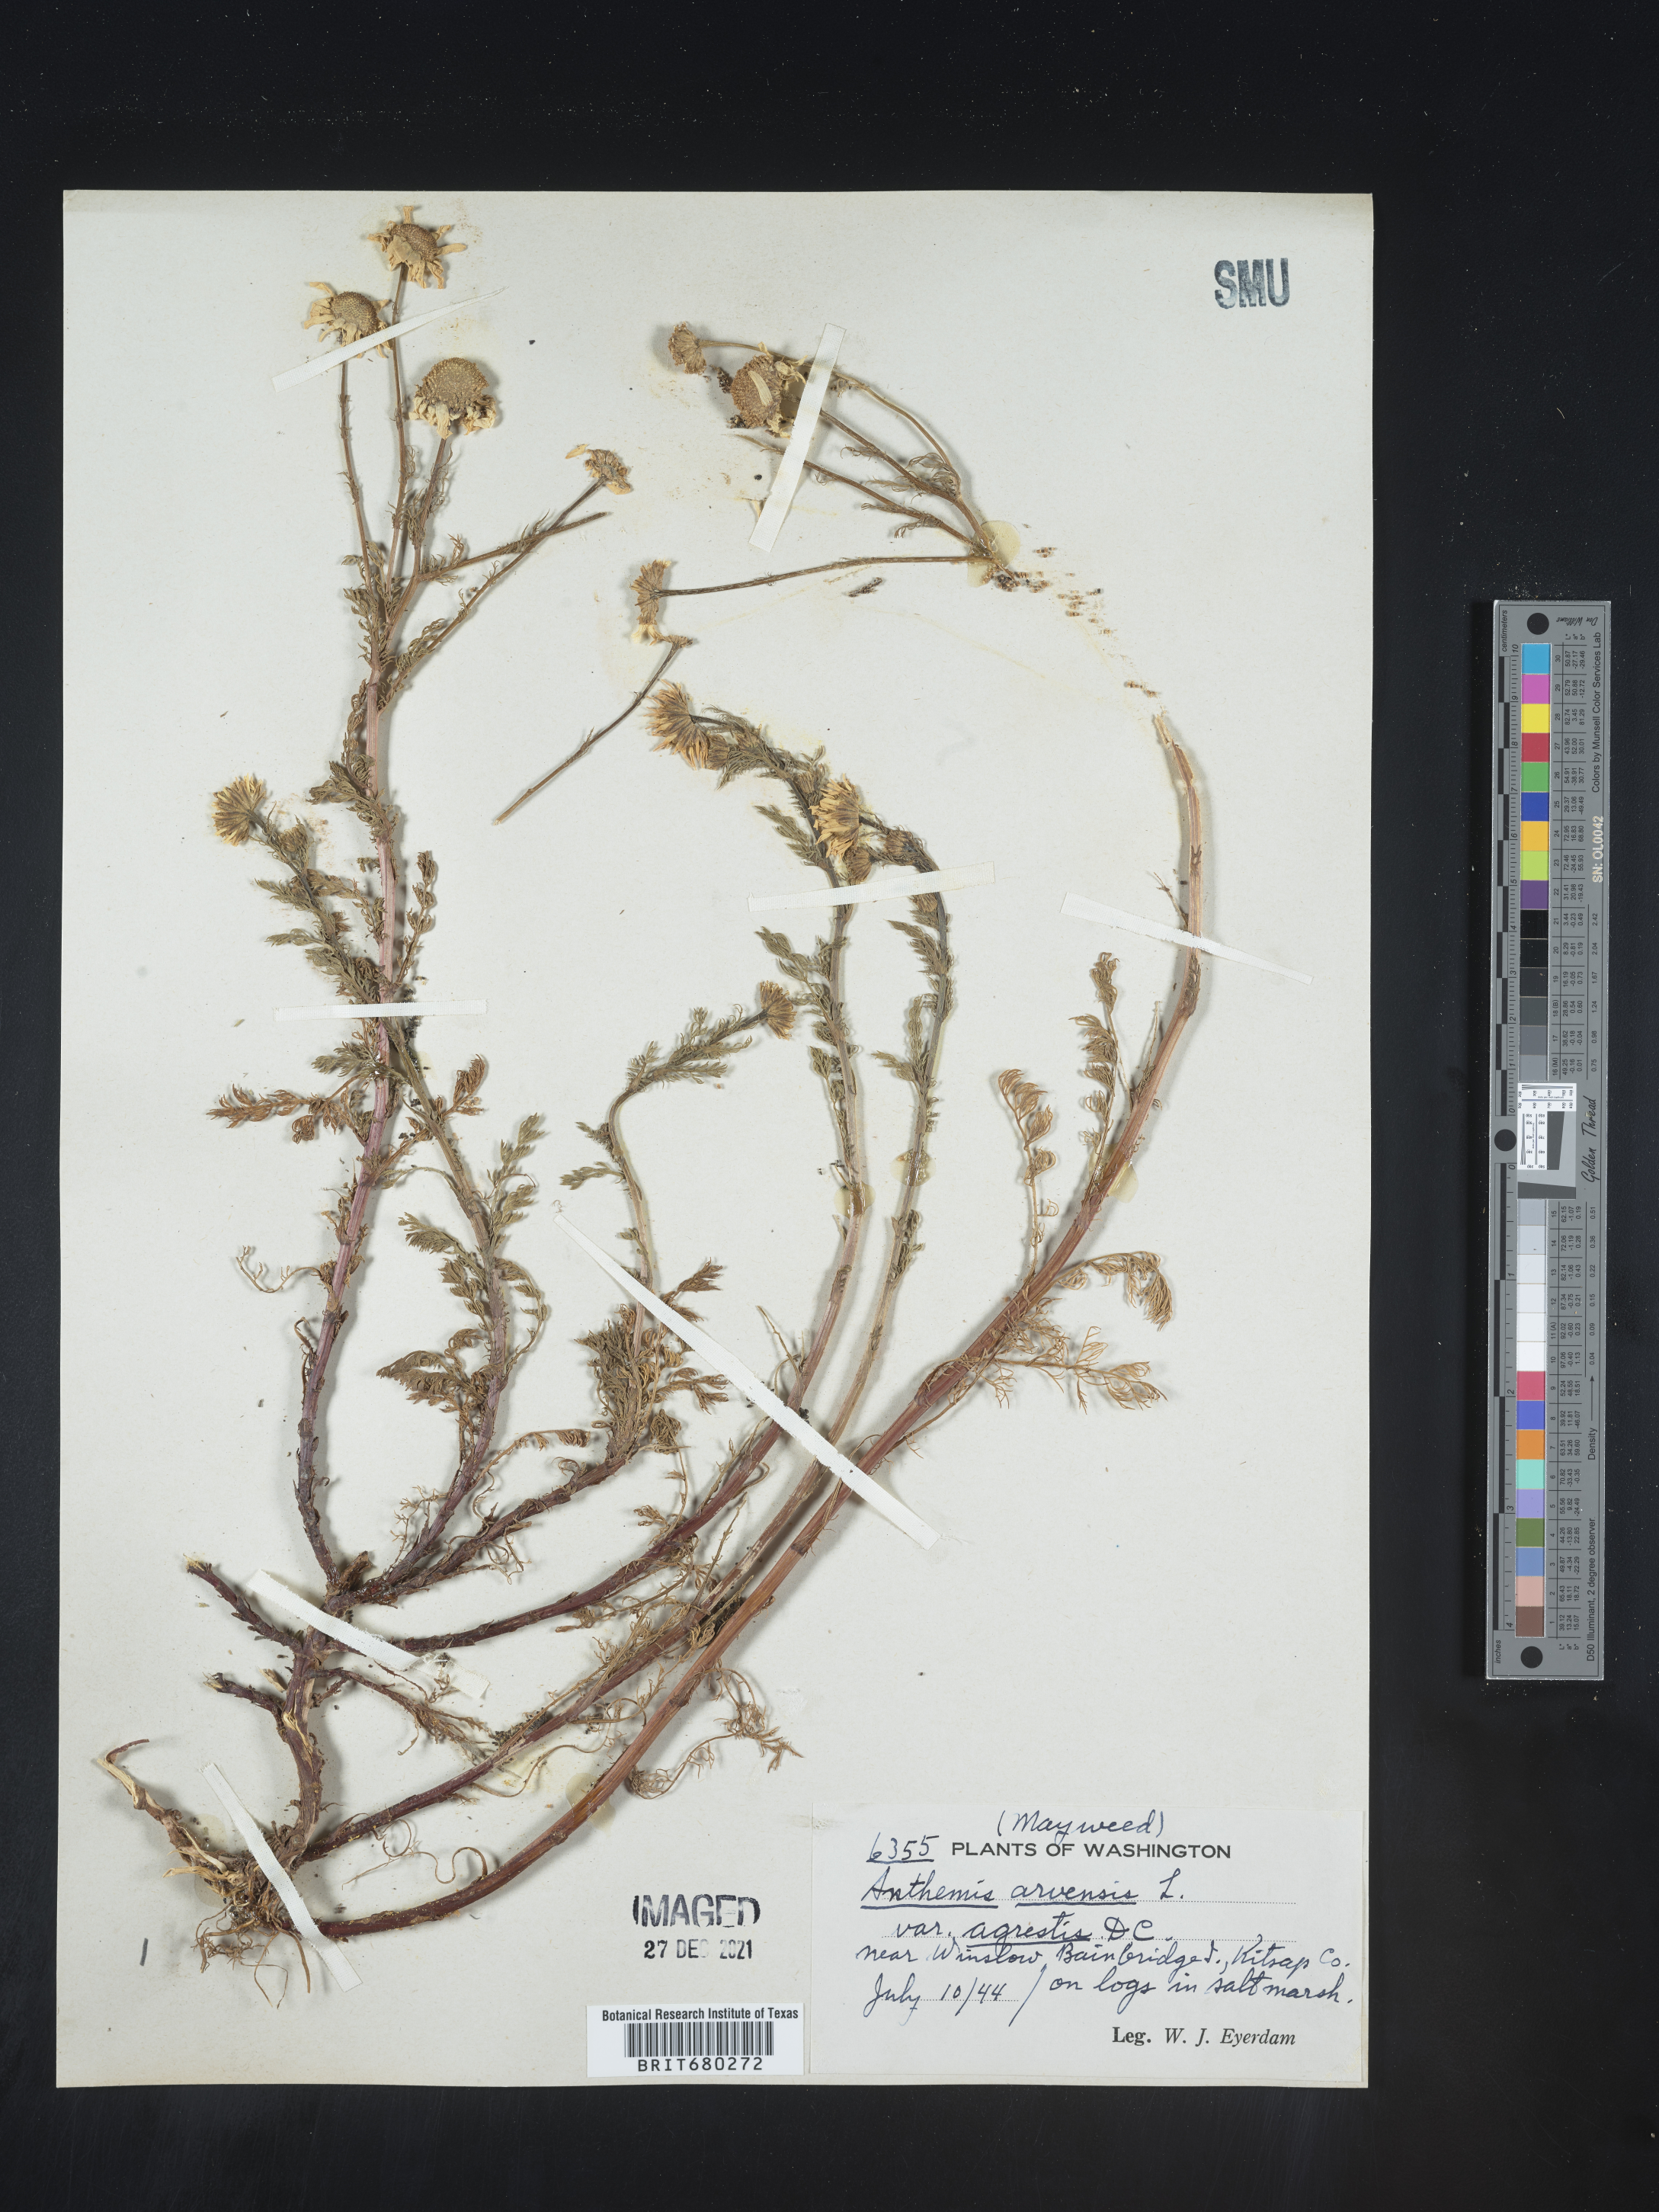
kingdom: Plantae
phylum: Tracheophyta
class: Magnoliopsida
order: Asterales
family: Asteraceae
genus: Anthemis
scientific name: Anthemis arvensis
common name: Corn chamomile
